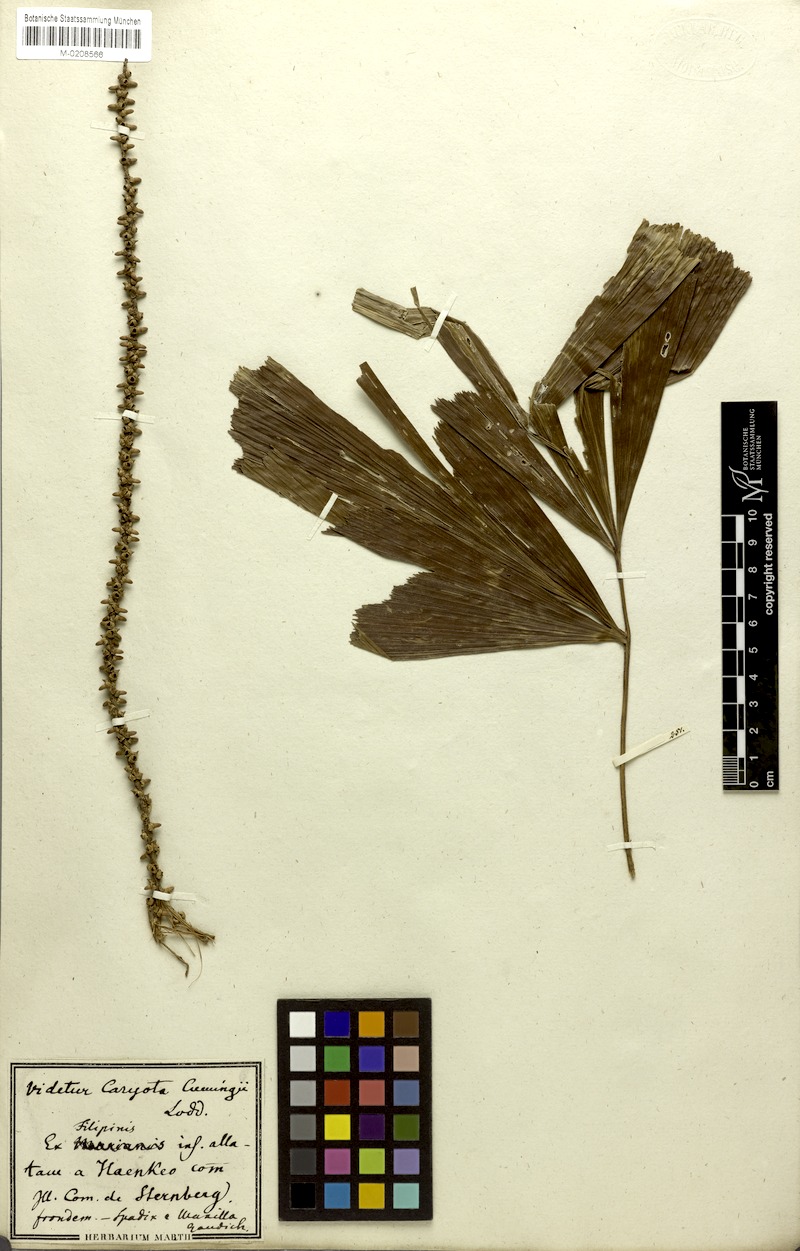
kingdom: Plantae
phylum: Tracheophyta
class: Liliopsida
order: Arecales
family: Arecaceae
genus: Caryota
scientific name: Caryota cumingii
